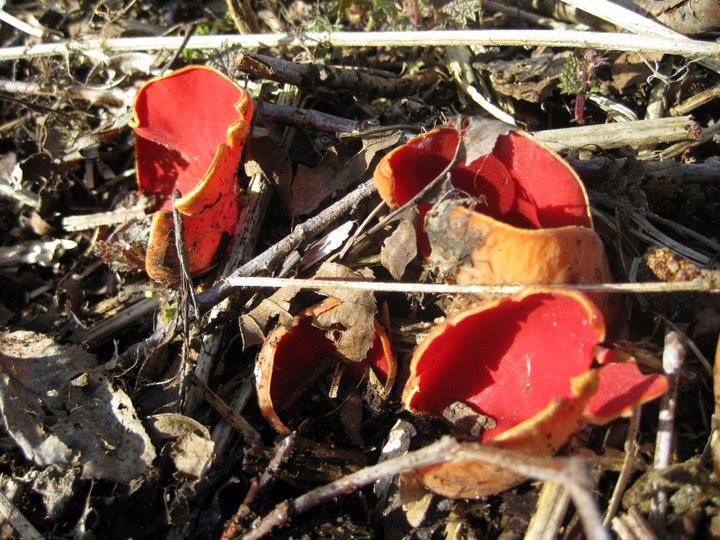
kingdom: Fungi
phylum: Ascomycota
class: Pezizomycetes
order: Pezizales
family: Sarcoscyphaceae
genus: Sarcoscypha
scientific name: Sarcoscypha austriaca
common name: krølhåret pragtbæger
